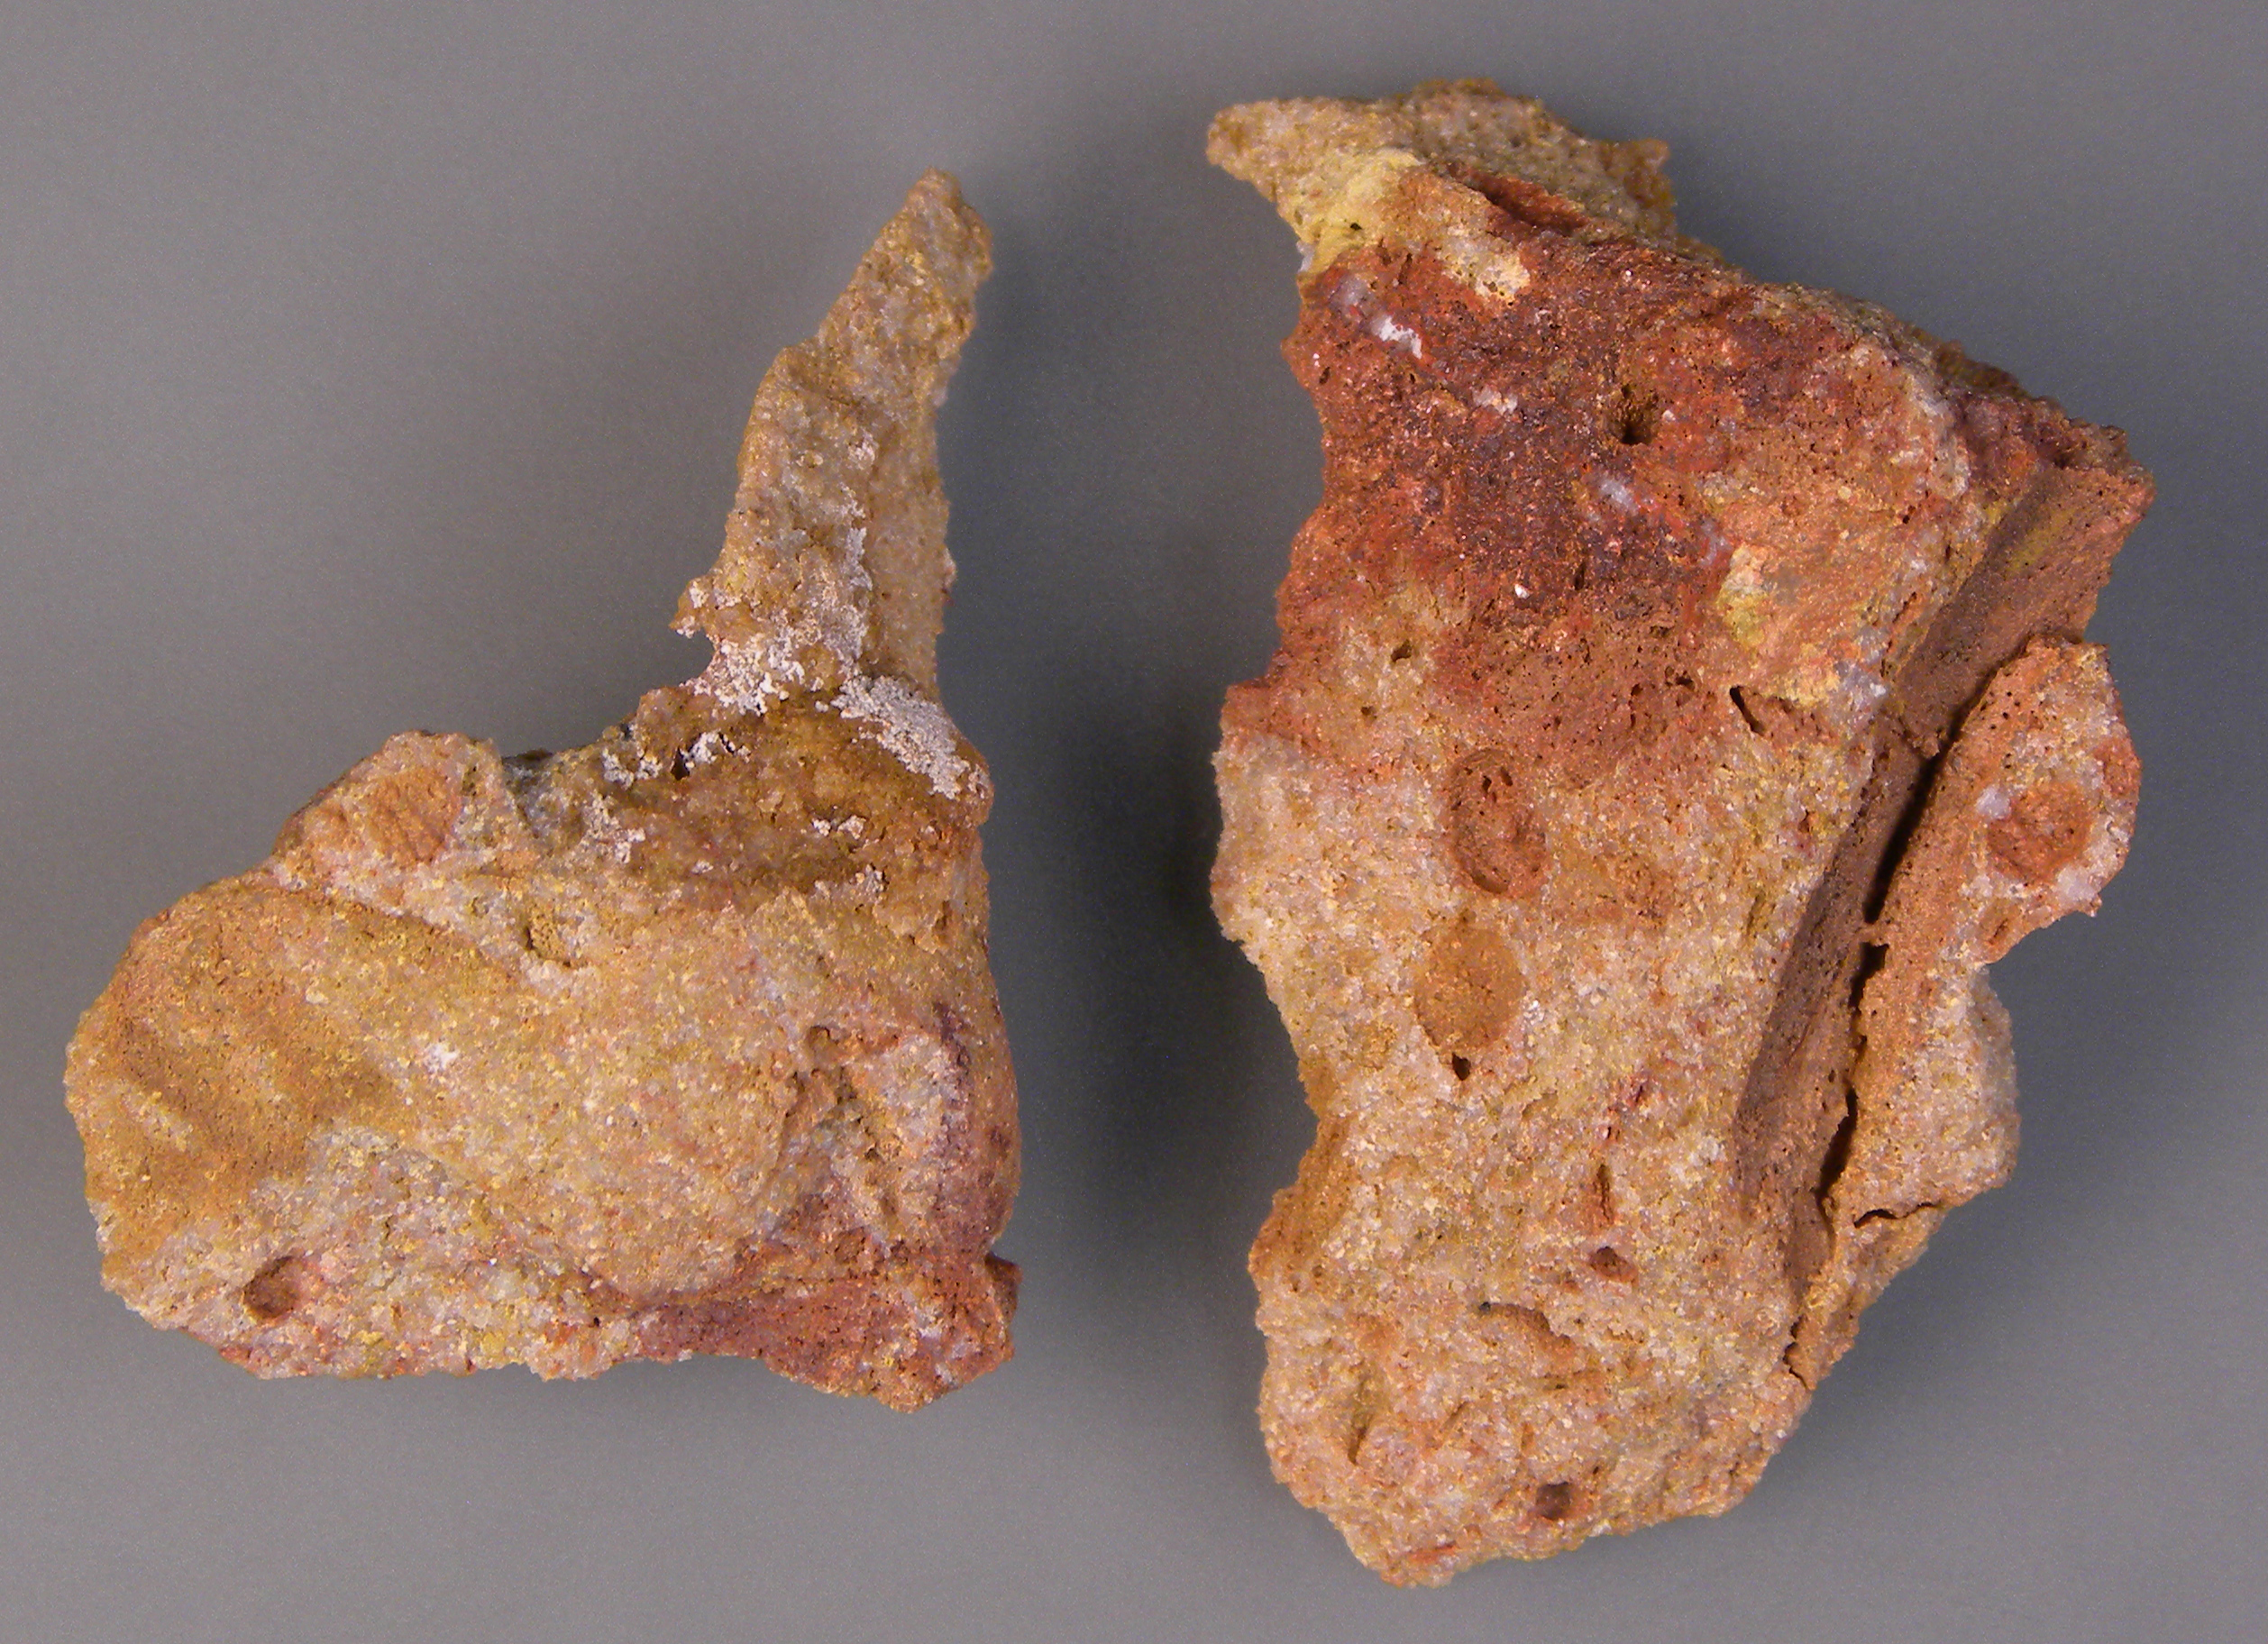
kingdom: Animalia
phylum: Mollusca
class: Bivalvia
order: Modiomorphida
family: Modiomorphidae
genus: Goniophora
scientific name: Goniophora
